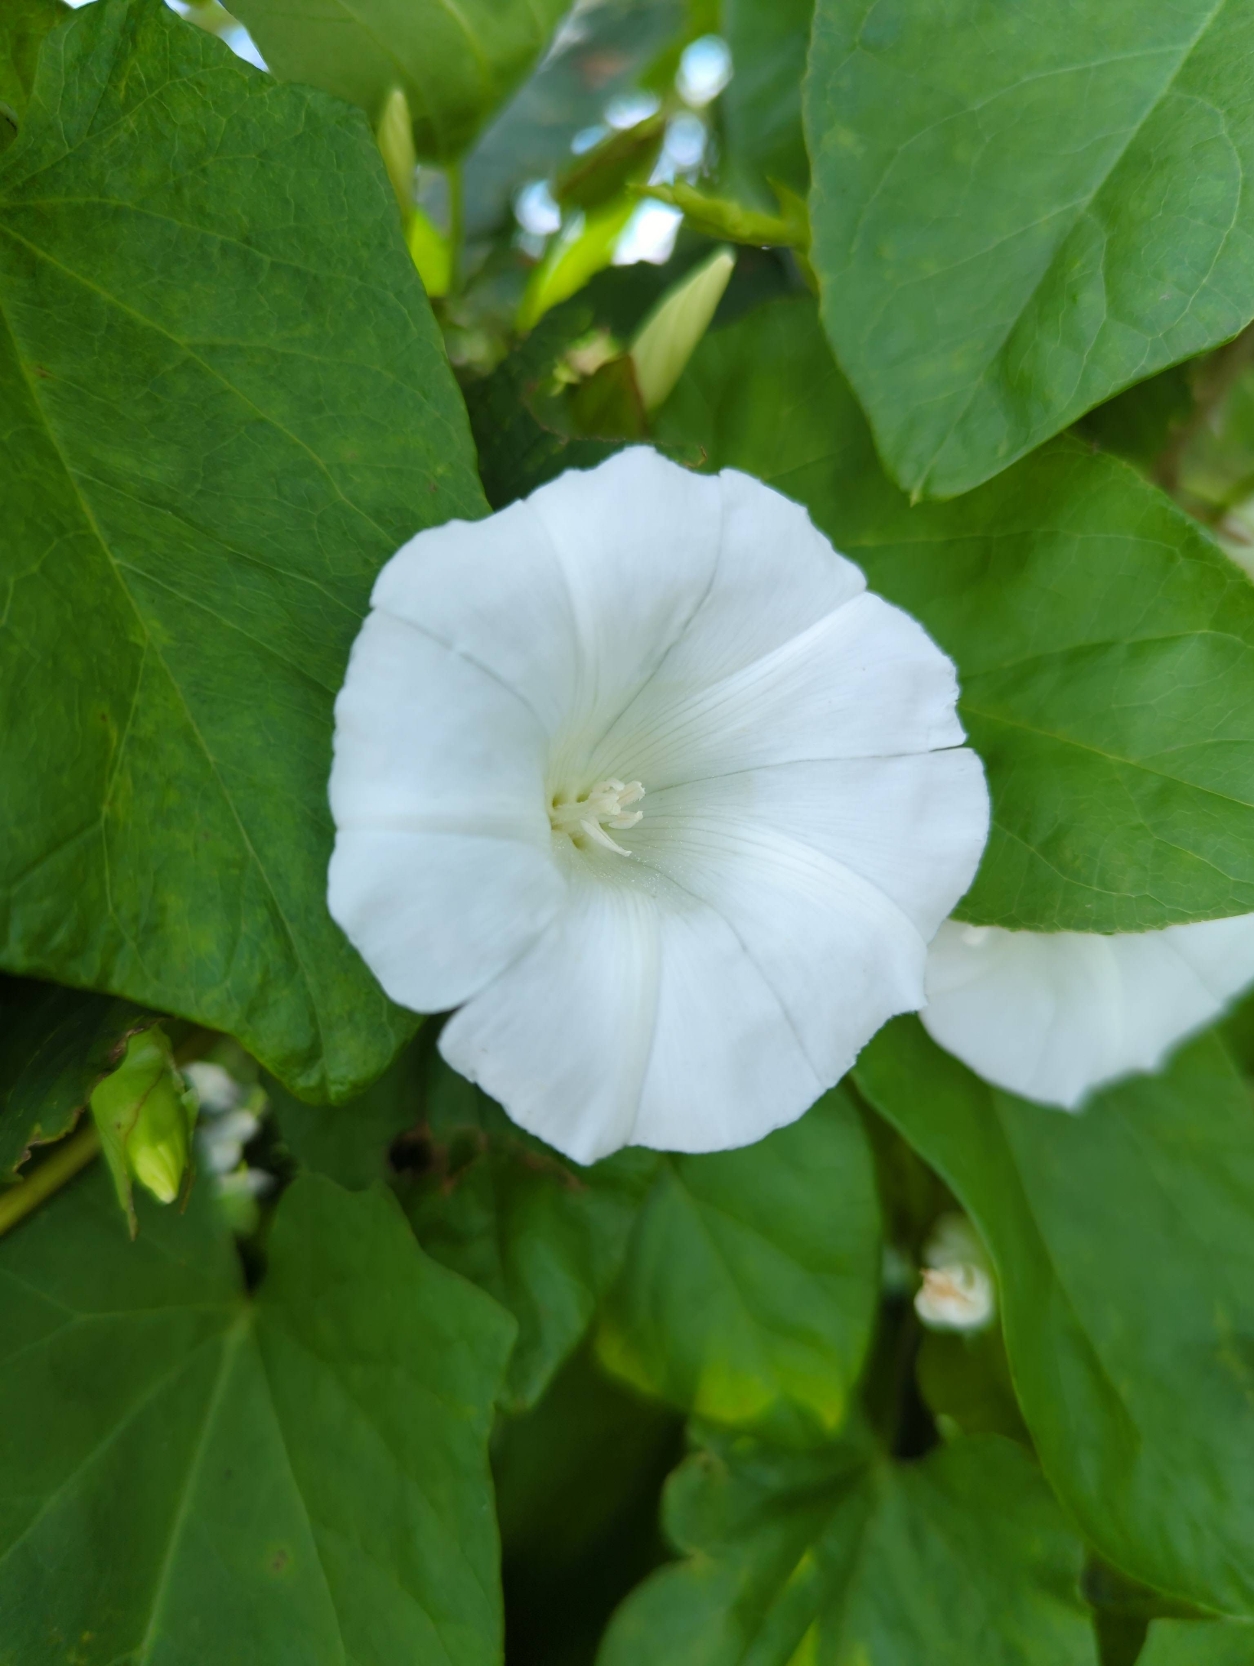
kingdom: Plantae
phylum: Tracheophyta
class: Magnoliopsida
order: Solanales
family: Convolvulaceae
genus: Calystegia
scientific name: Calystegia sepium
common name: Gærde-snerle
